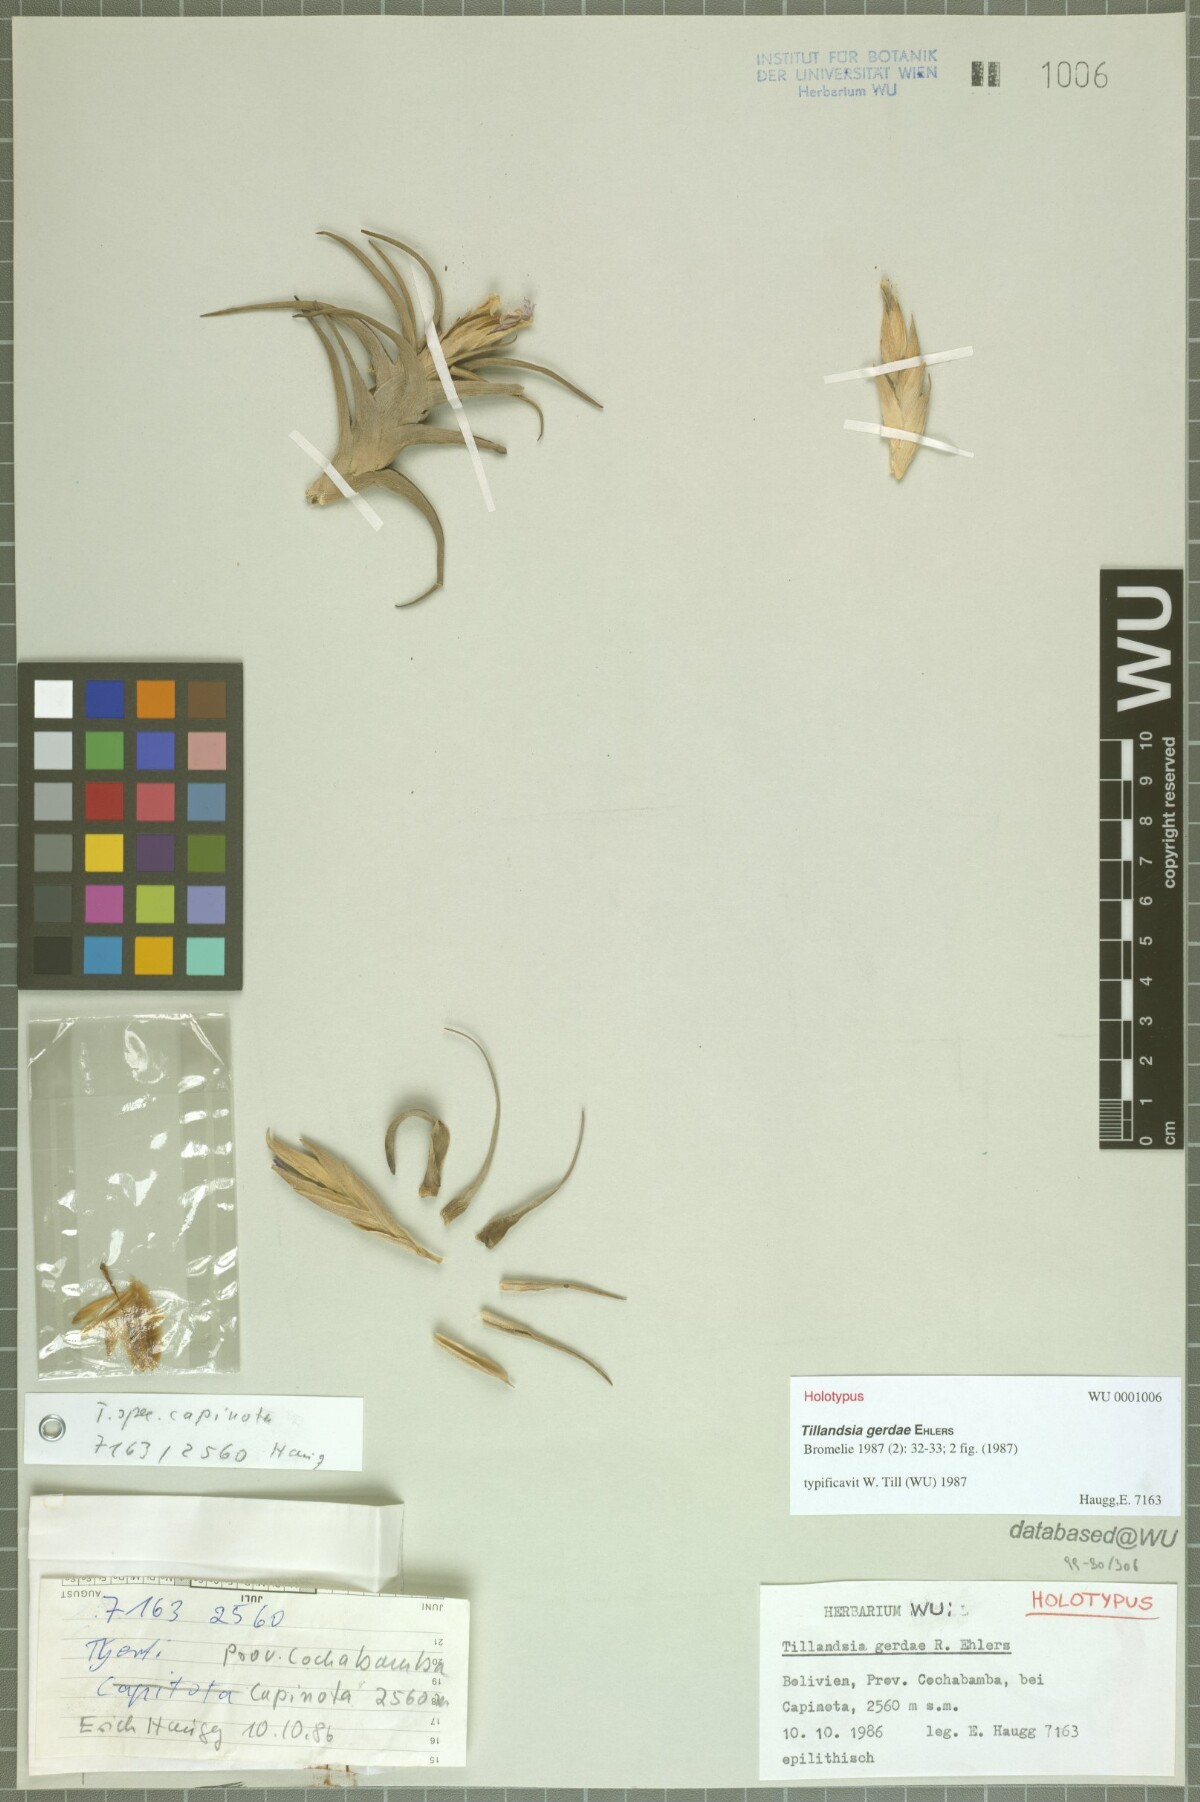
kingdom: Plantae
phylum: Tracheophyta
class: Liliopsida
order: Poales
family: Bromeliaceae
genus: Tillandsia
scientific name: Tillandsia gerdae
